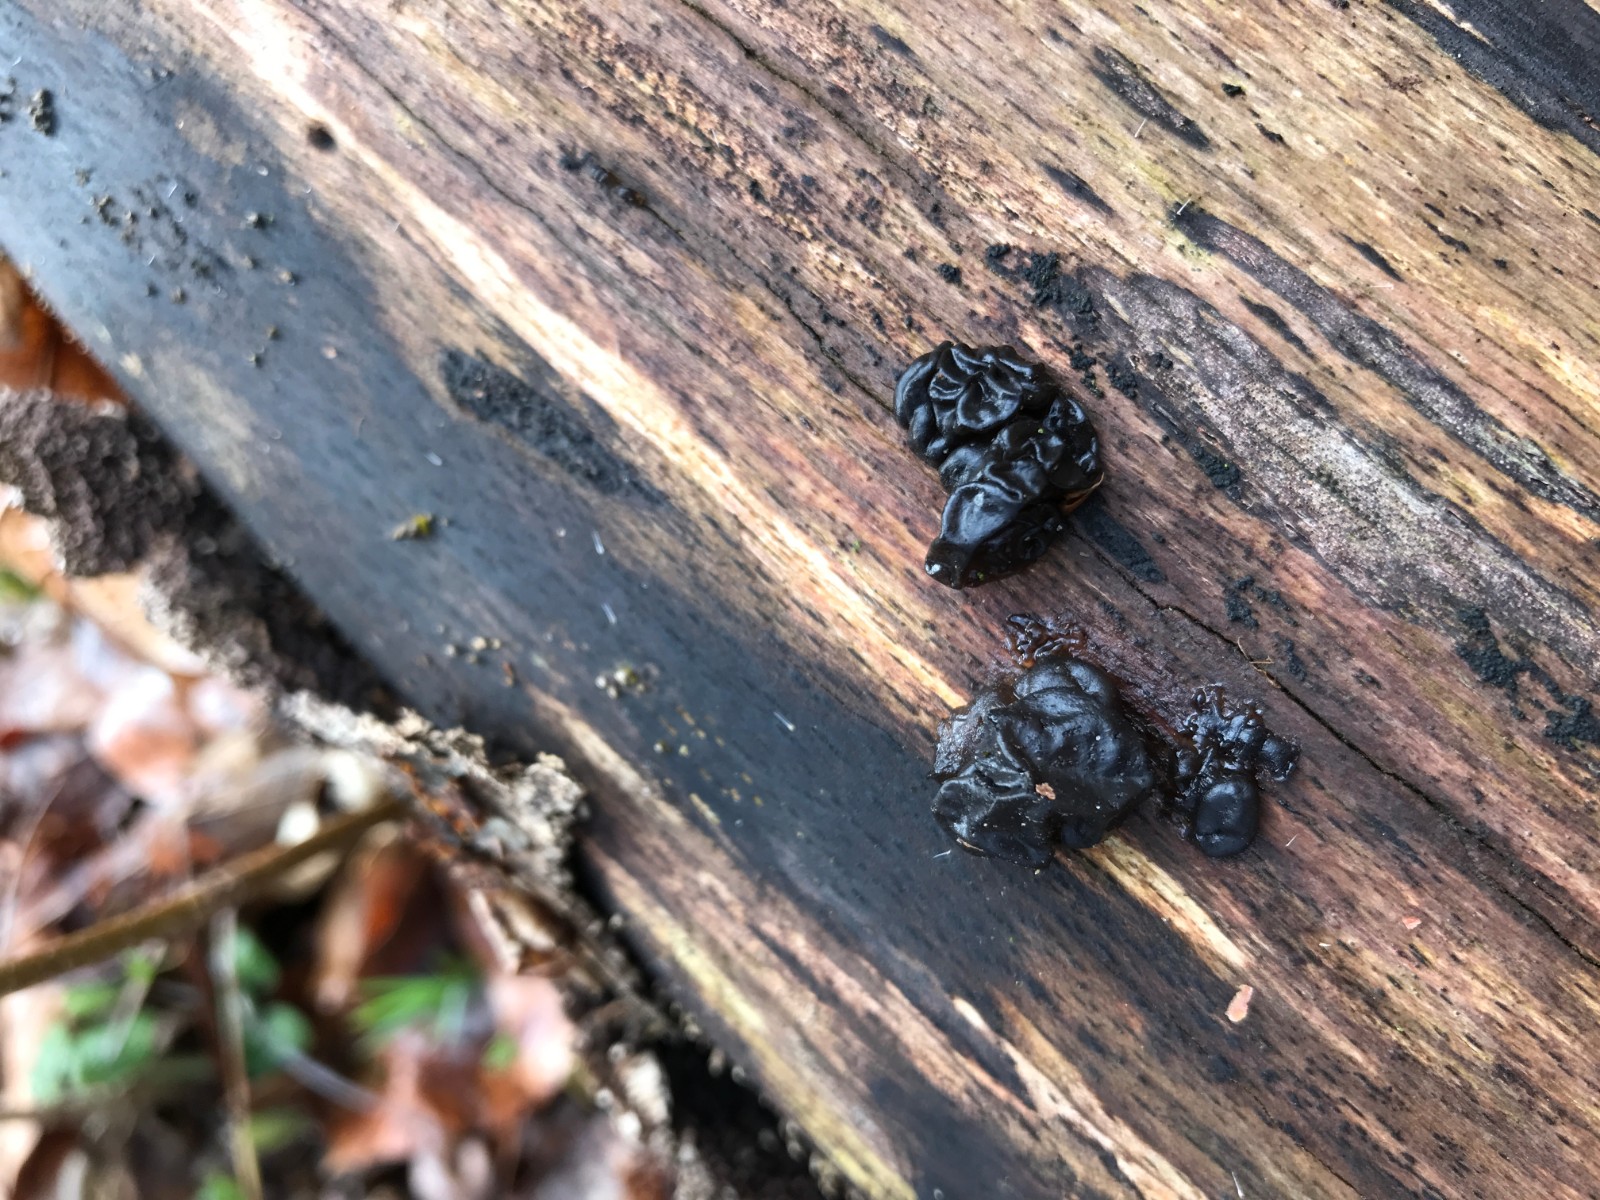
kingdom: Fungi
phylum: Basidiomycota
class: Agaricomycetes
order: Auriculariales
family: Auriculariaceae
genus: Exidia
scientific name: Exidia glandulosa
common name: ege-bævretop
